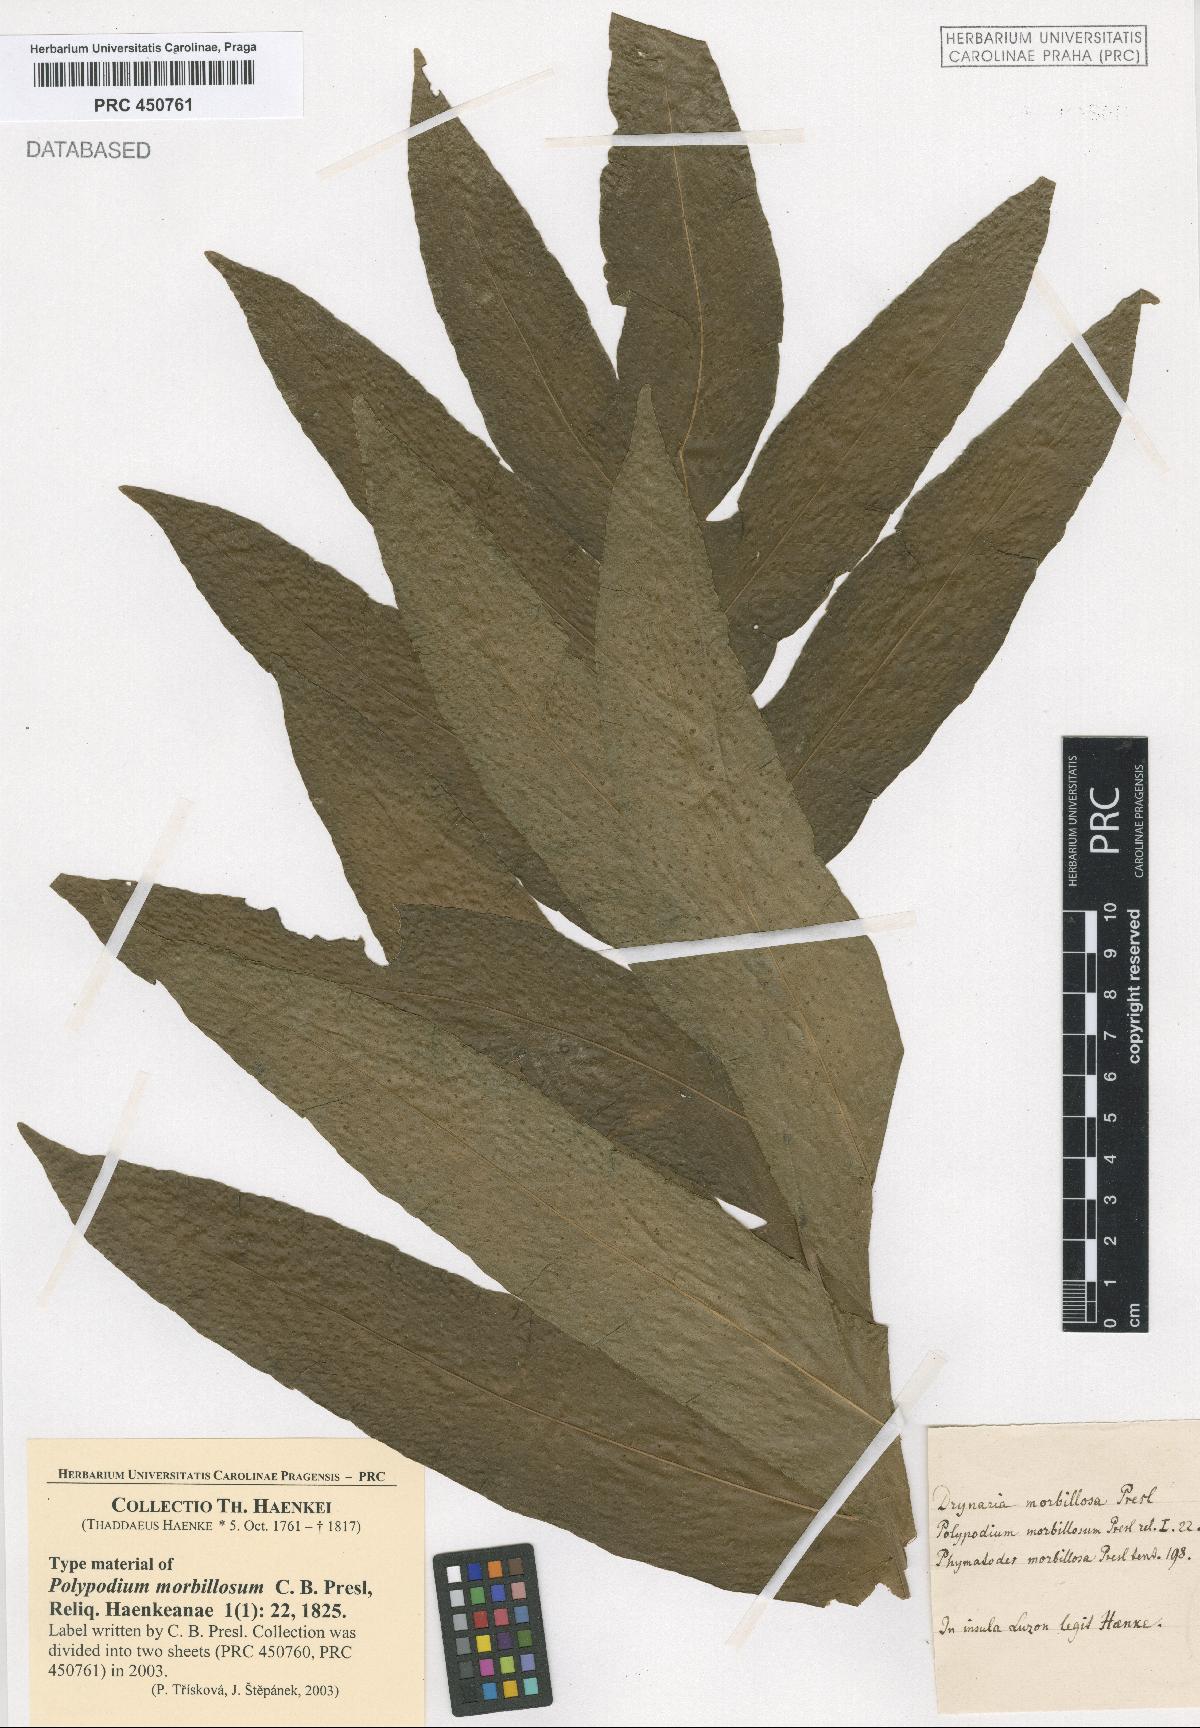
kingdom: Plantae
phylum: Tracheophyta
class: Polypodiopsida
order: Polypodiales
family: Polypodiaceae
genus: Drynaria
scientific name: Drynaria quercifolia
